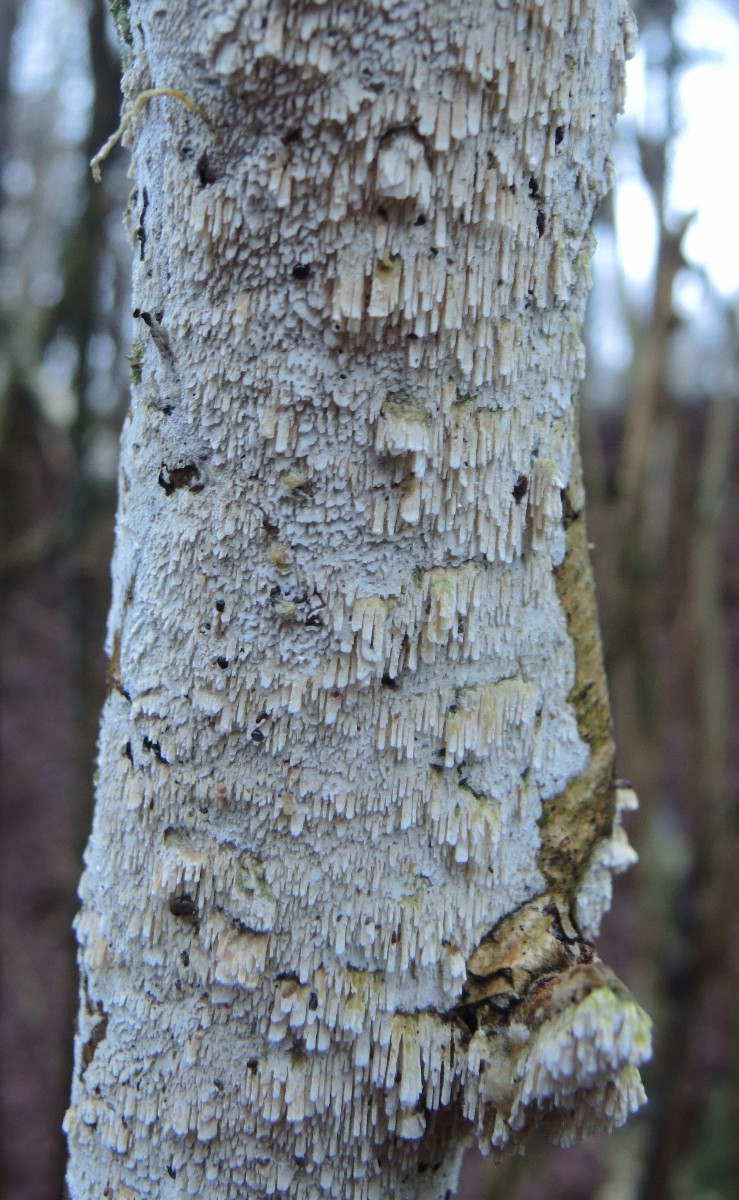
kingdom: Fungi
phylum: Basidiomycota
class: Agaricomycetes
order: Hymenochaetales
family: Schizoporaceae
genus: Xylodon
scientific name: Xylodon radula
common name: grovtandet kalkskind
